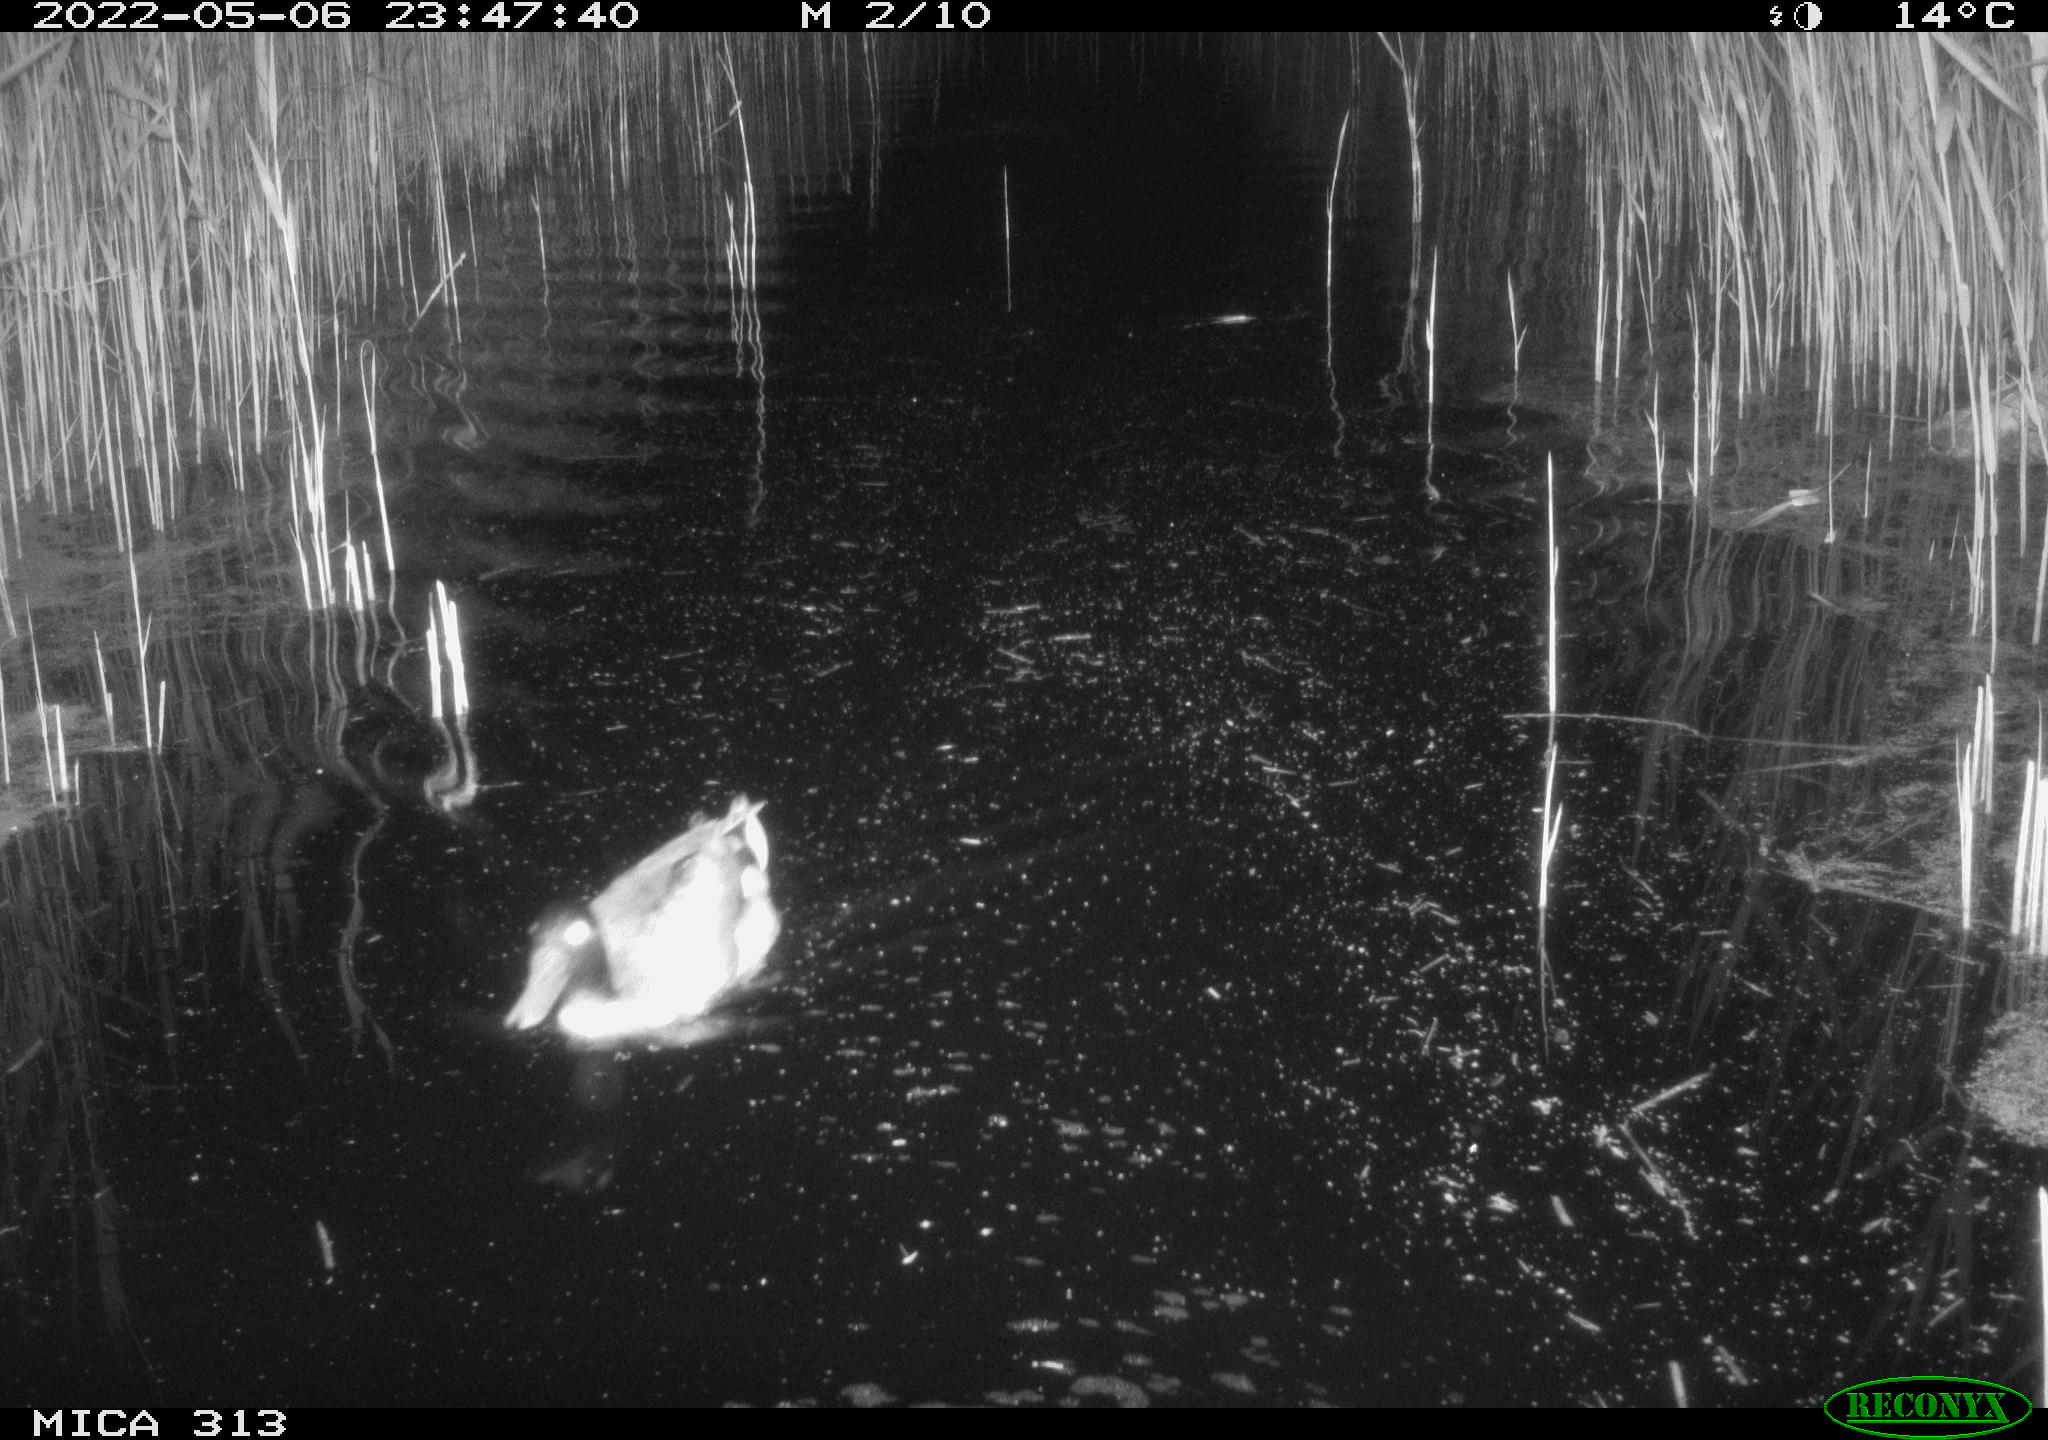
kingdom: Animalia
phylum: Chordata
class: Aves
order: Anseriformes
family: Anatidae
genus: Mareca
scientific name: Mareca strepera
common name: Gadwall
